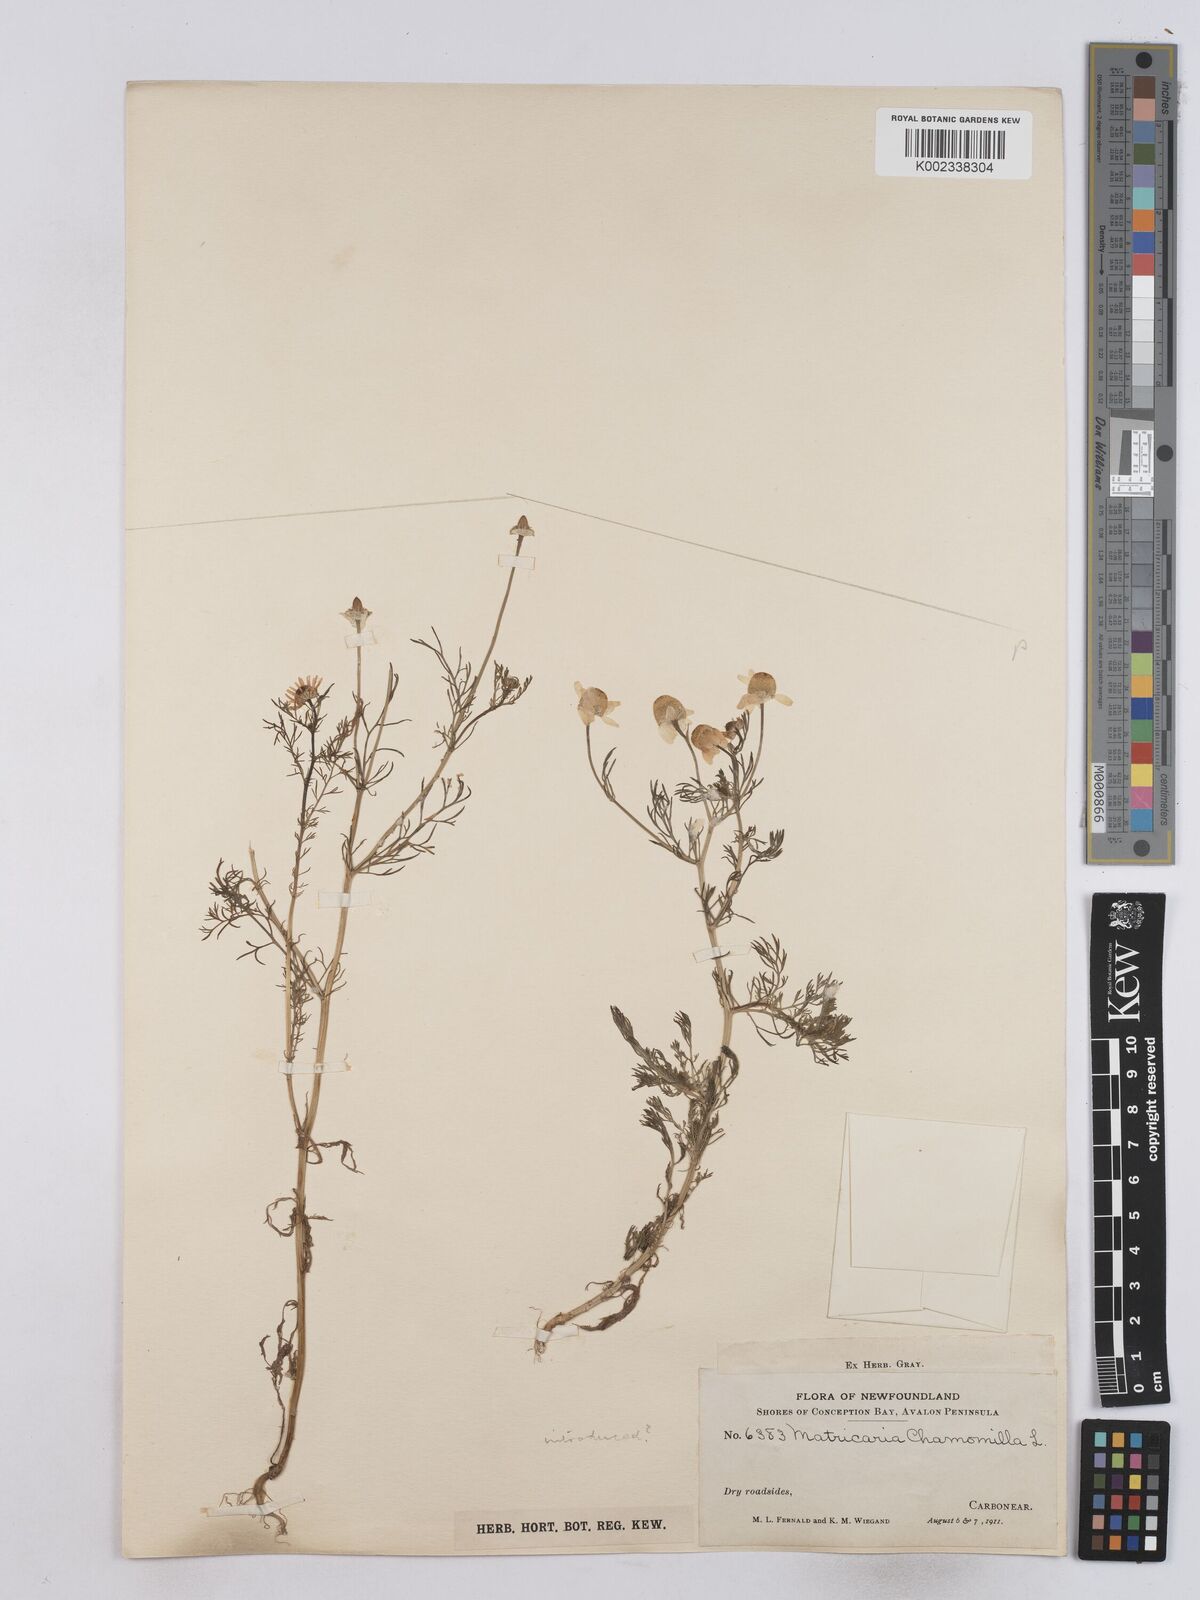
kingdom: Plantae
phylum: Tracheophyta
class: Magnoliopsida
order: Asterales
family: Asteraceae
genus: Matricaria
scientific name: Matricaria chamomilla
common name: Scented mayweed
